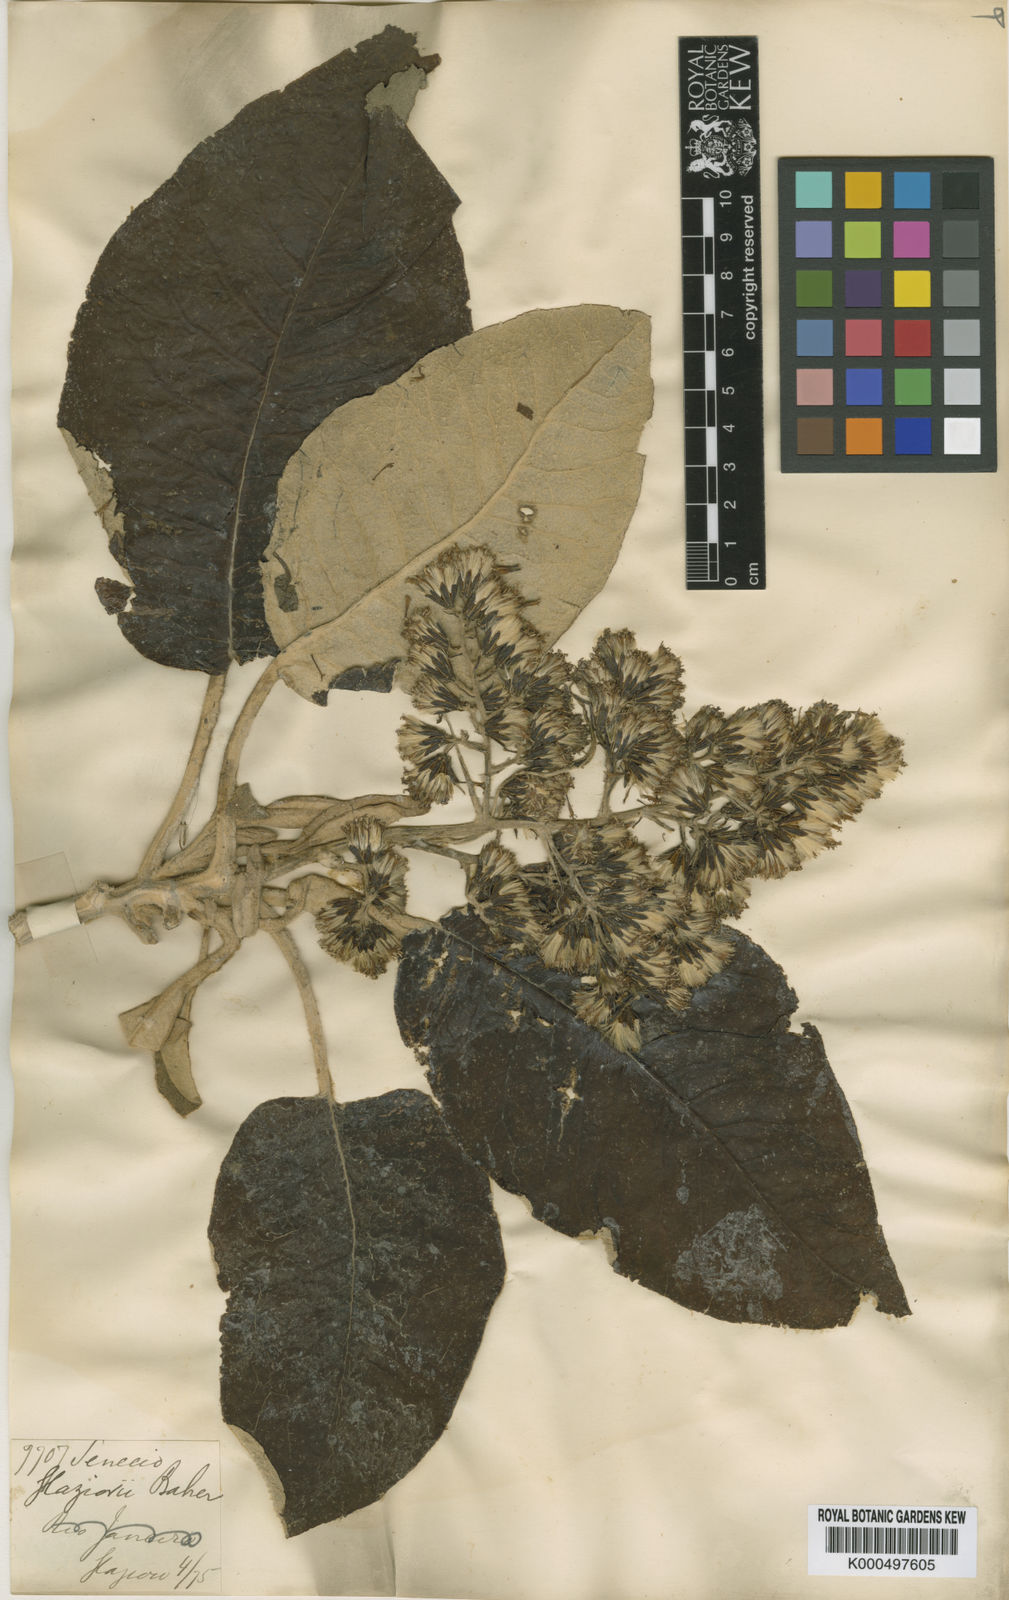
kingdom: Plantae
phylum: Tracheophyta
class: Magnoliopsida
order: Asterales
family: Asteraceae
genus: Dendrophorbium
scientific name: Dendrophorbium glaziovii
